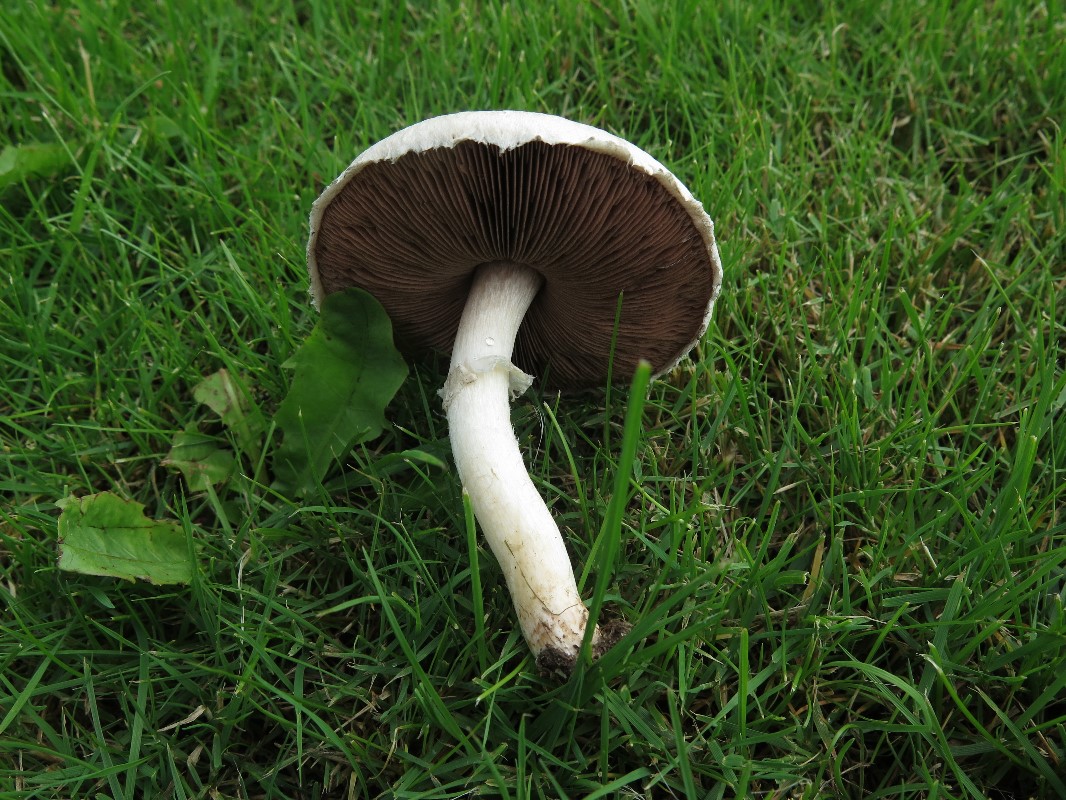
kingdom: Fungi
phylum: Basidiomycota
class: Agaricomycetes
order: Agaricales
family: Agaricaceae
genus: Agaricus
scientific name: Agaricus campestris
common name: mark-champignon
